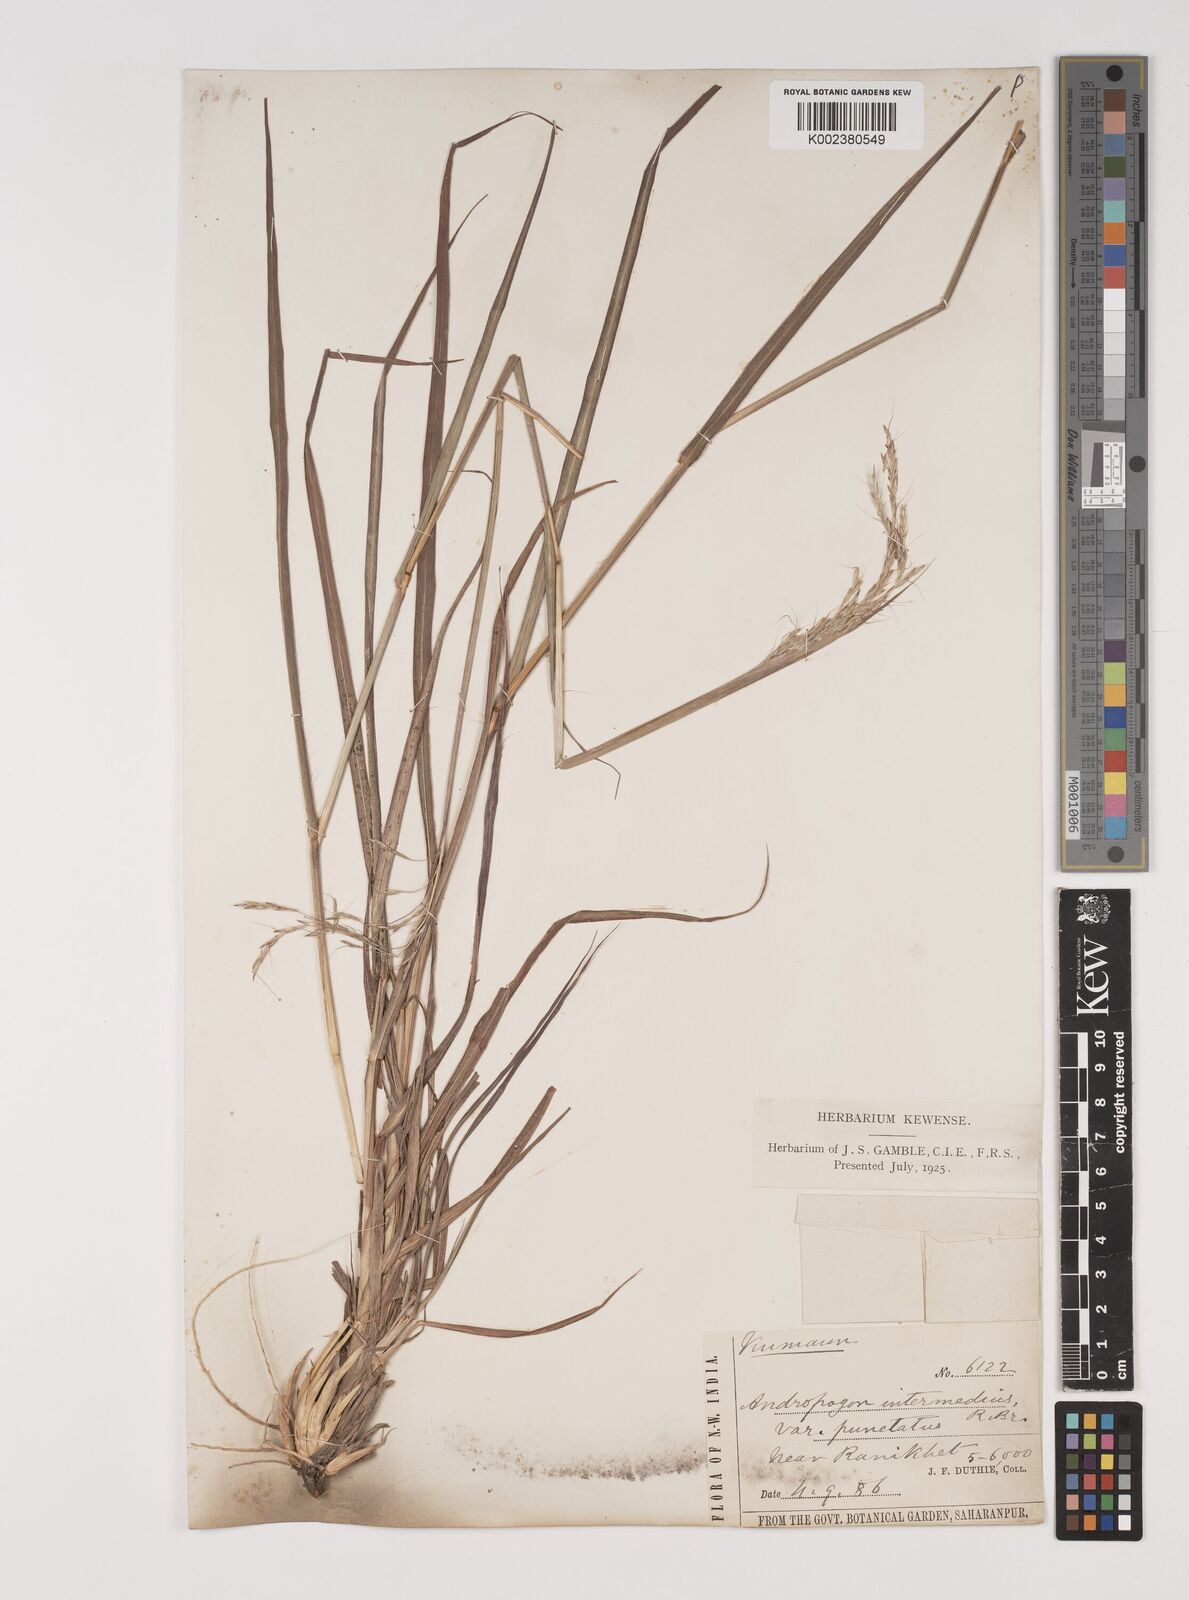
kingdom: Plantae
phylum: Tracheophyta
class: Liliopsida
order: Poales
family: Poaceae
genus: Bothriochloa
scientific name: Bothriochloa bladhii
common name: Caucasian bluestem
